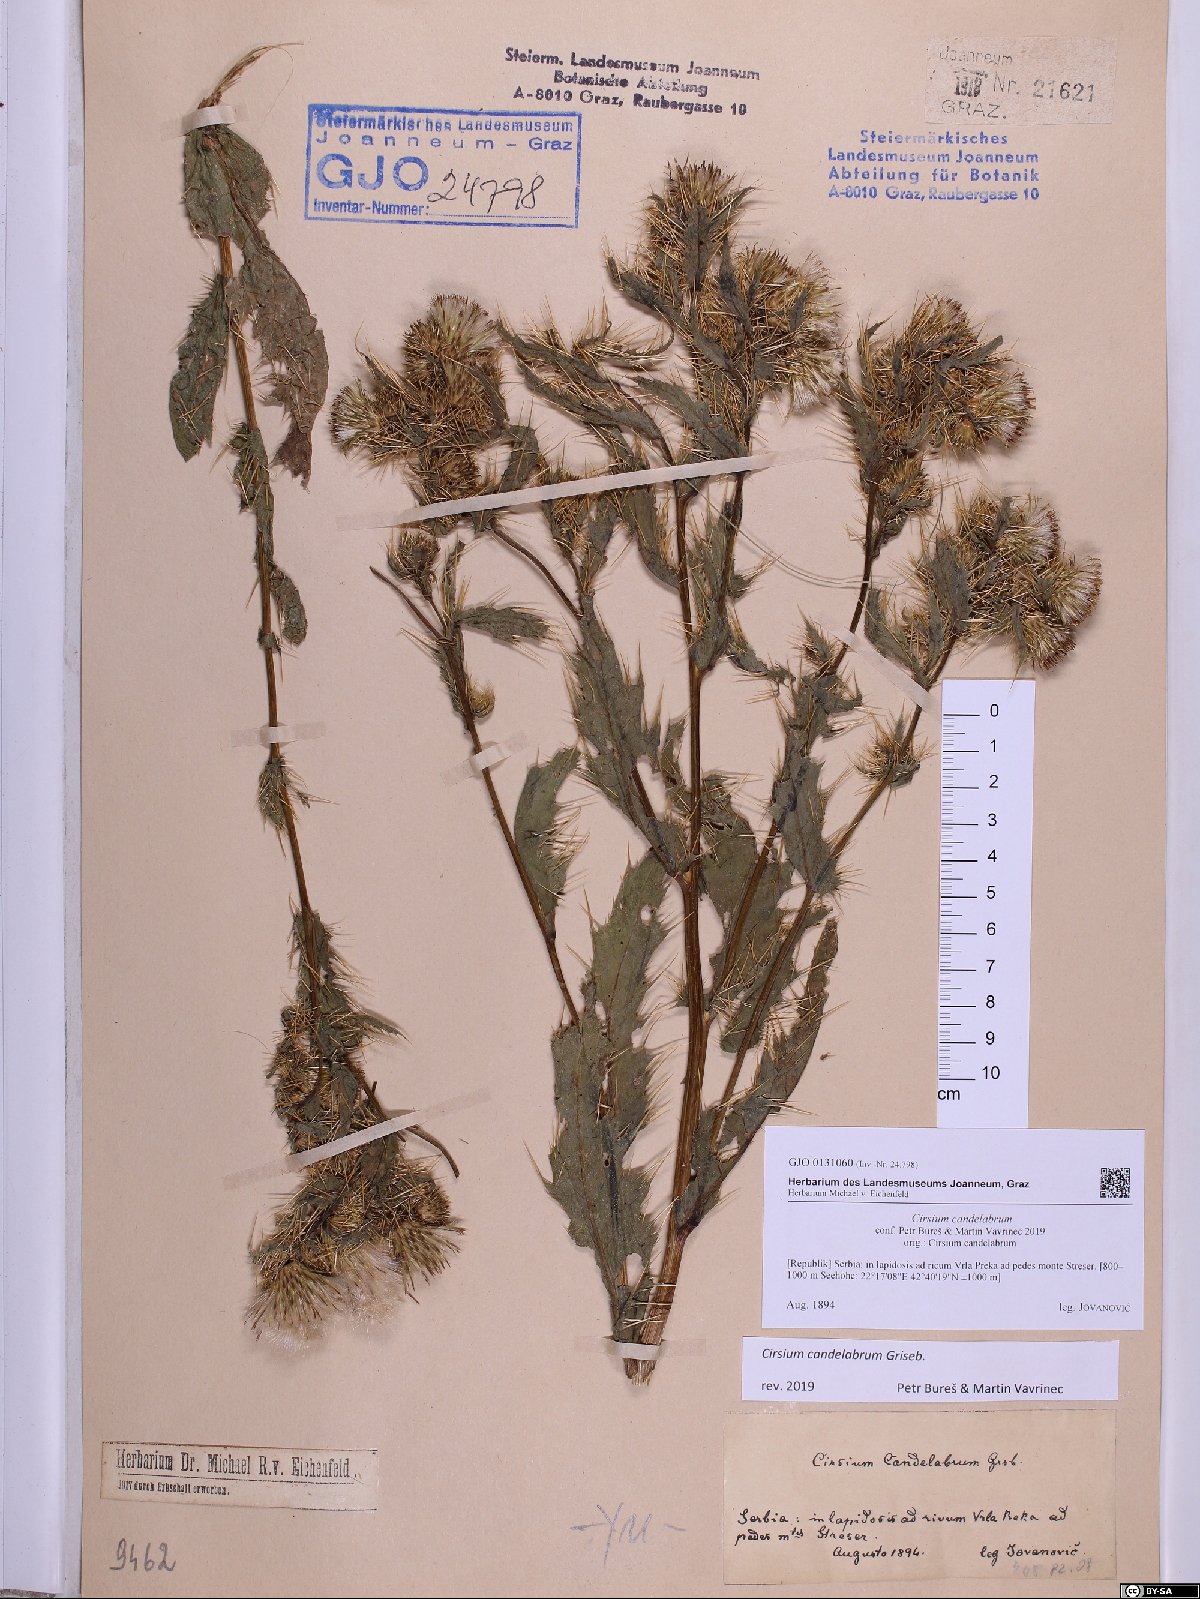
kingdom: Plantae
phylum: Tracheophyta
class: Magnoliopsida
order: Asterales
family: Asteraceae
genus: Cirsium
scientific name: Cirsium candelabrum
